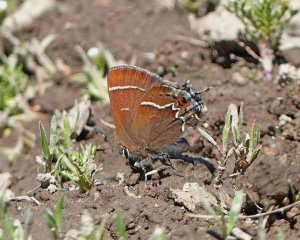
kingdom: Animalia
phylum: Arthropoda
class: Insecta
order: Lepidoptera
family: Lycaenidae
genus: Mitoura
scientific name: Mitoura spinetorum
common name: Thicket Hairstreak
